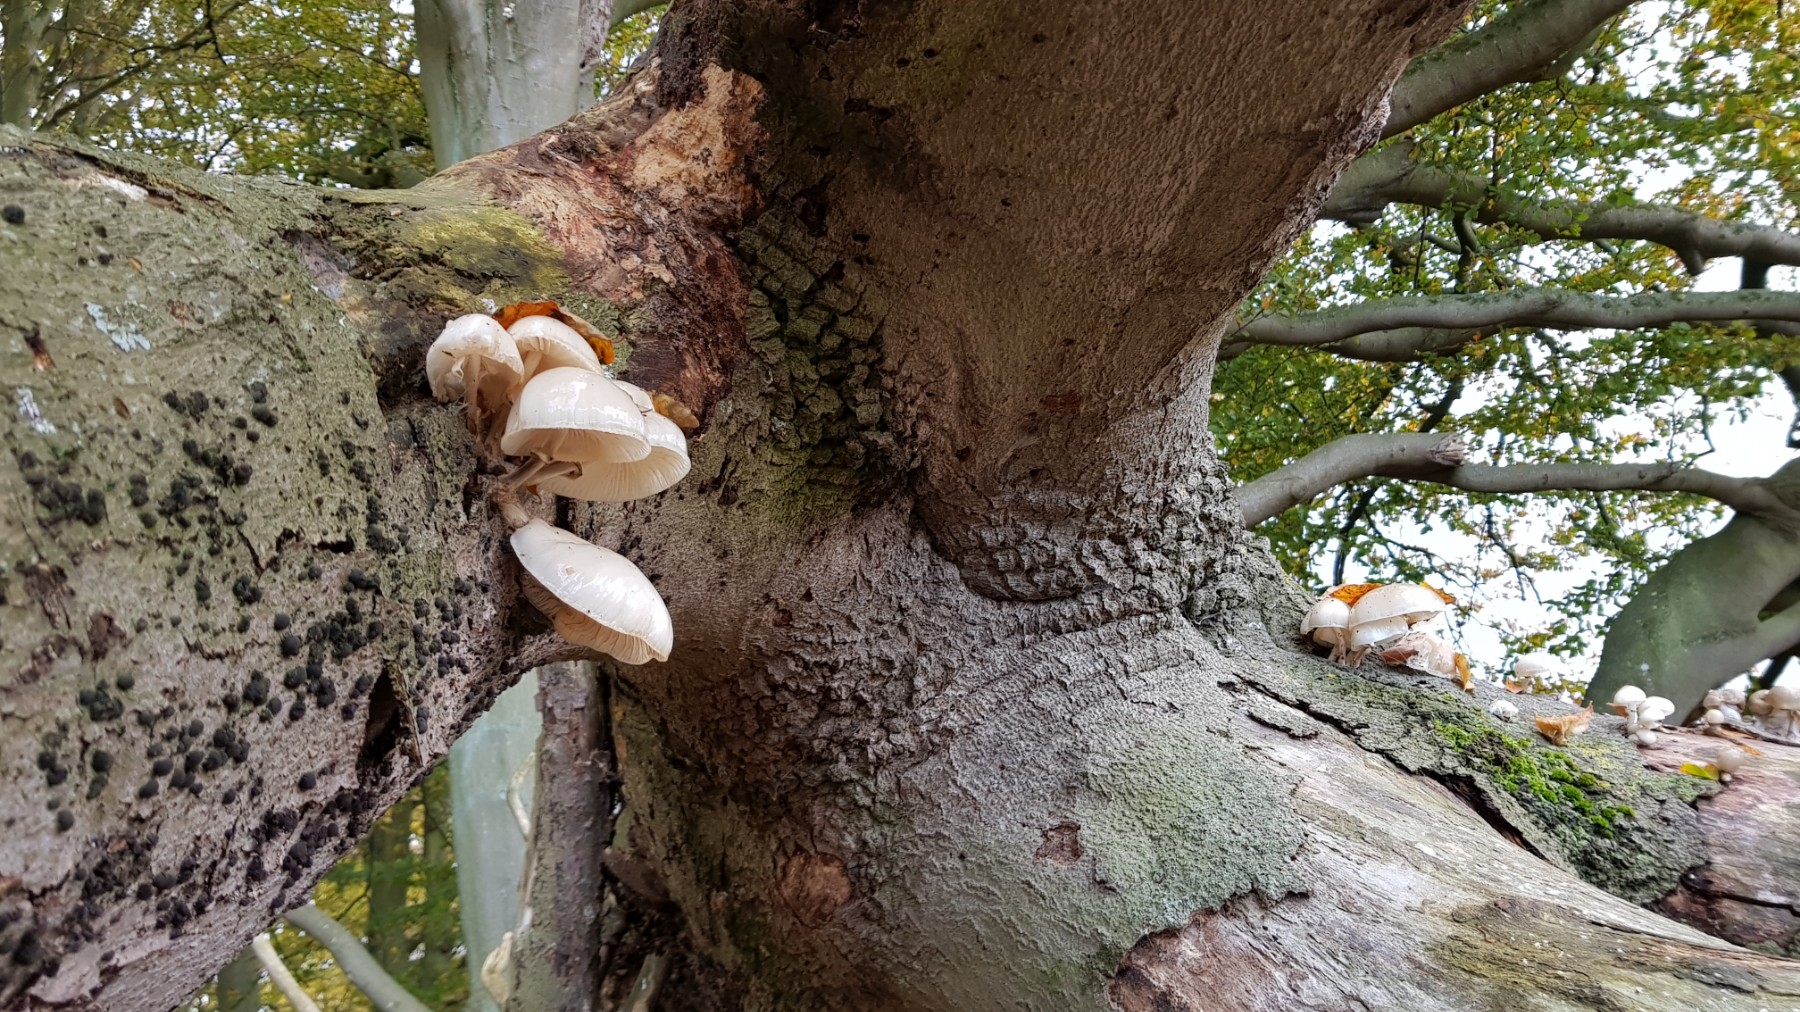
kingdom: Fungi
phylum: Basidiomycota
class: Agaricomycetes
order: Agaricales
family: Physalacriaceae
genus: Mucidula
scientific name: Mucidula mucida
